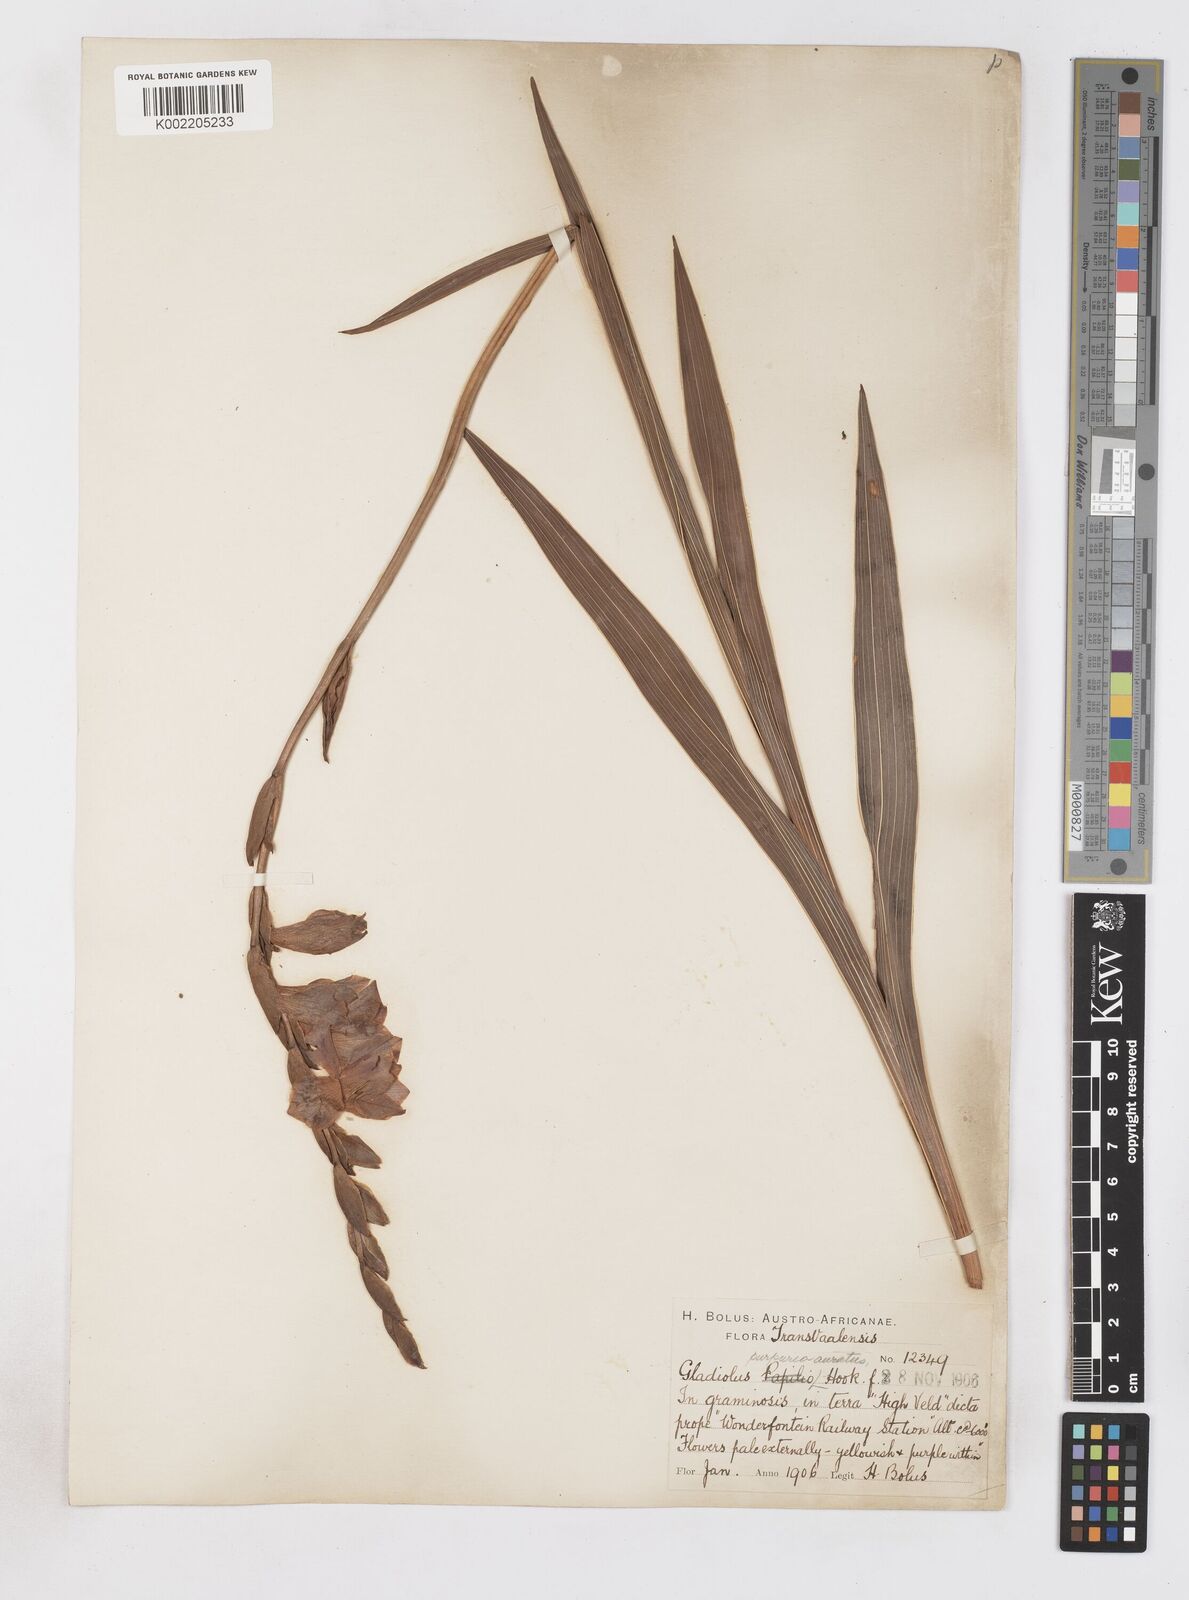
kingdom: Plantae
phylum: Tracheophyta
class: Liliopsida
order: Asparagales
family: Iridaceae
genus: Gladiolus
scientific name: Gladiolus papilio
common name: Goldblotch gladiolus
